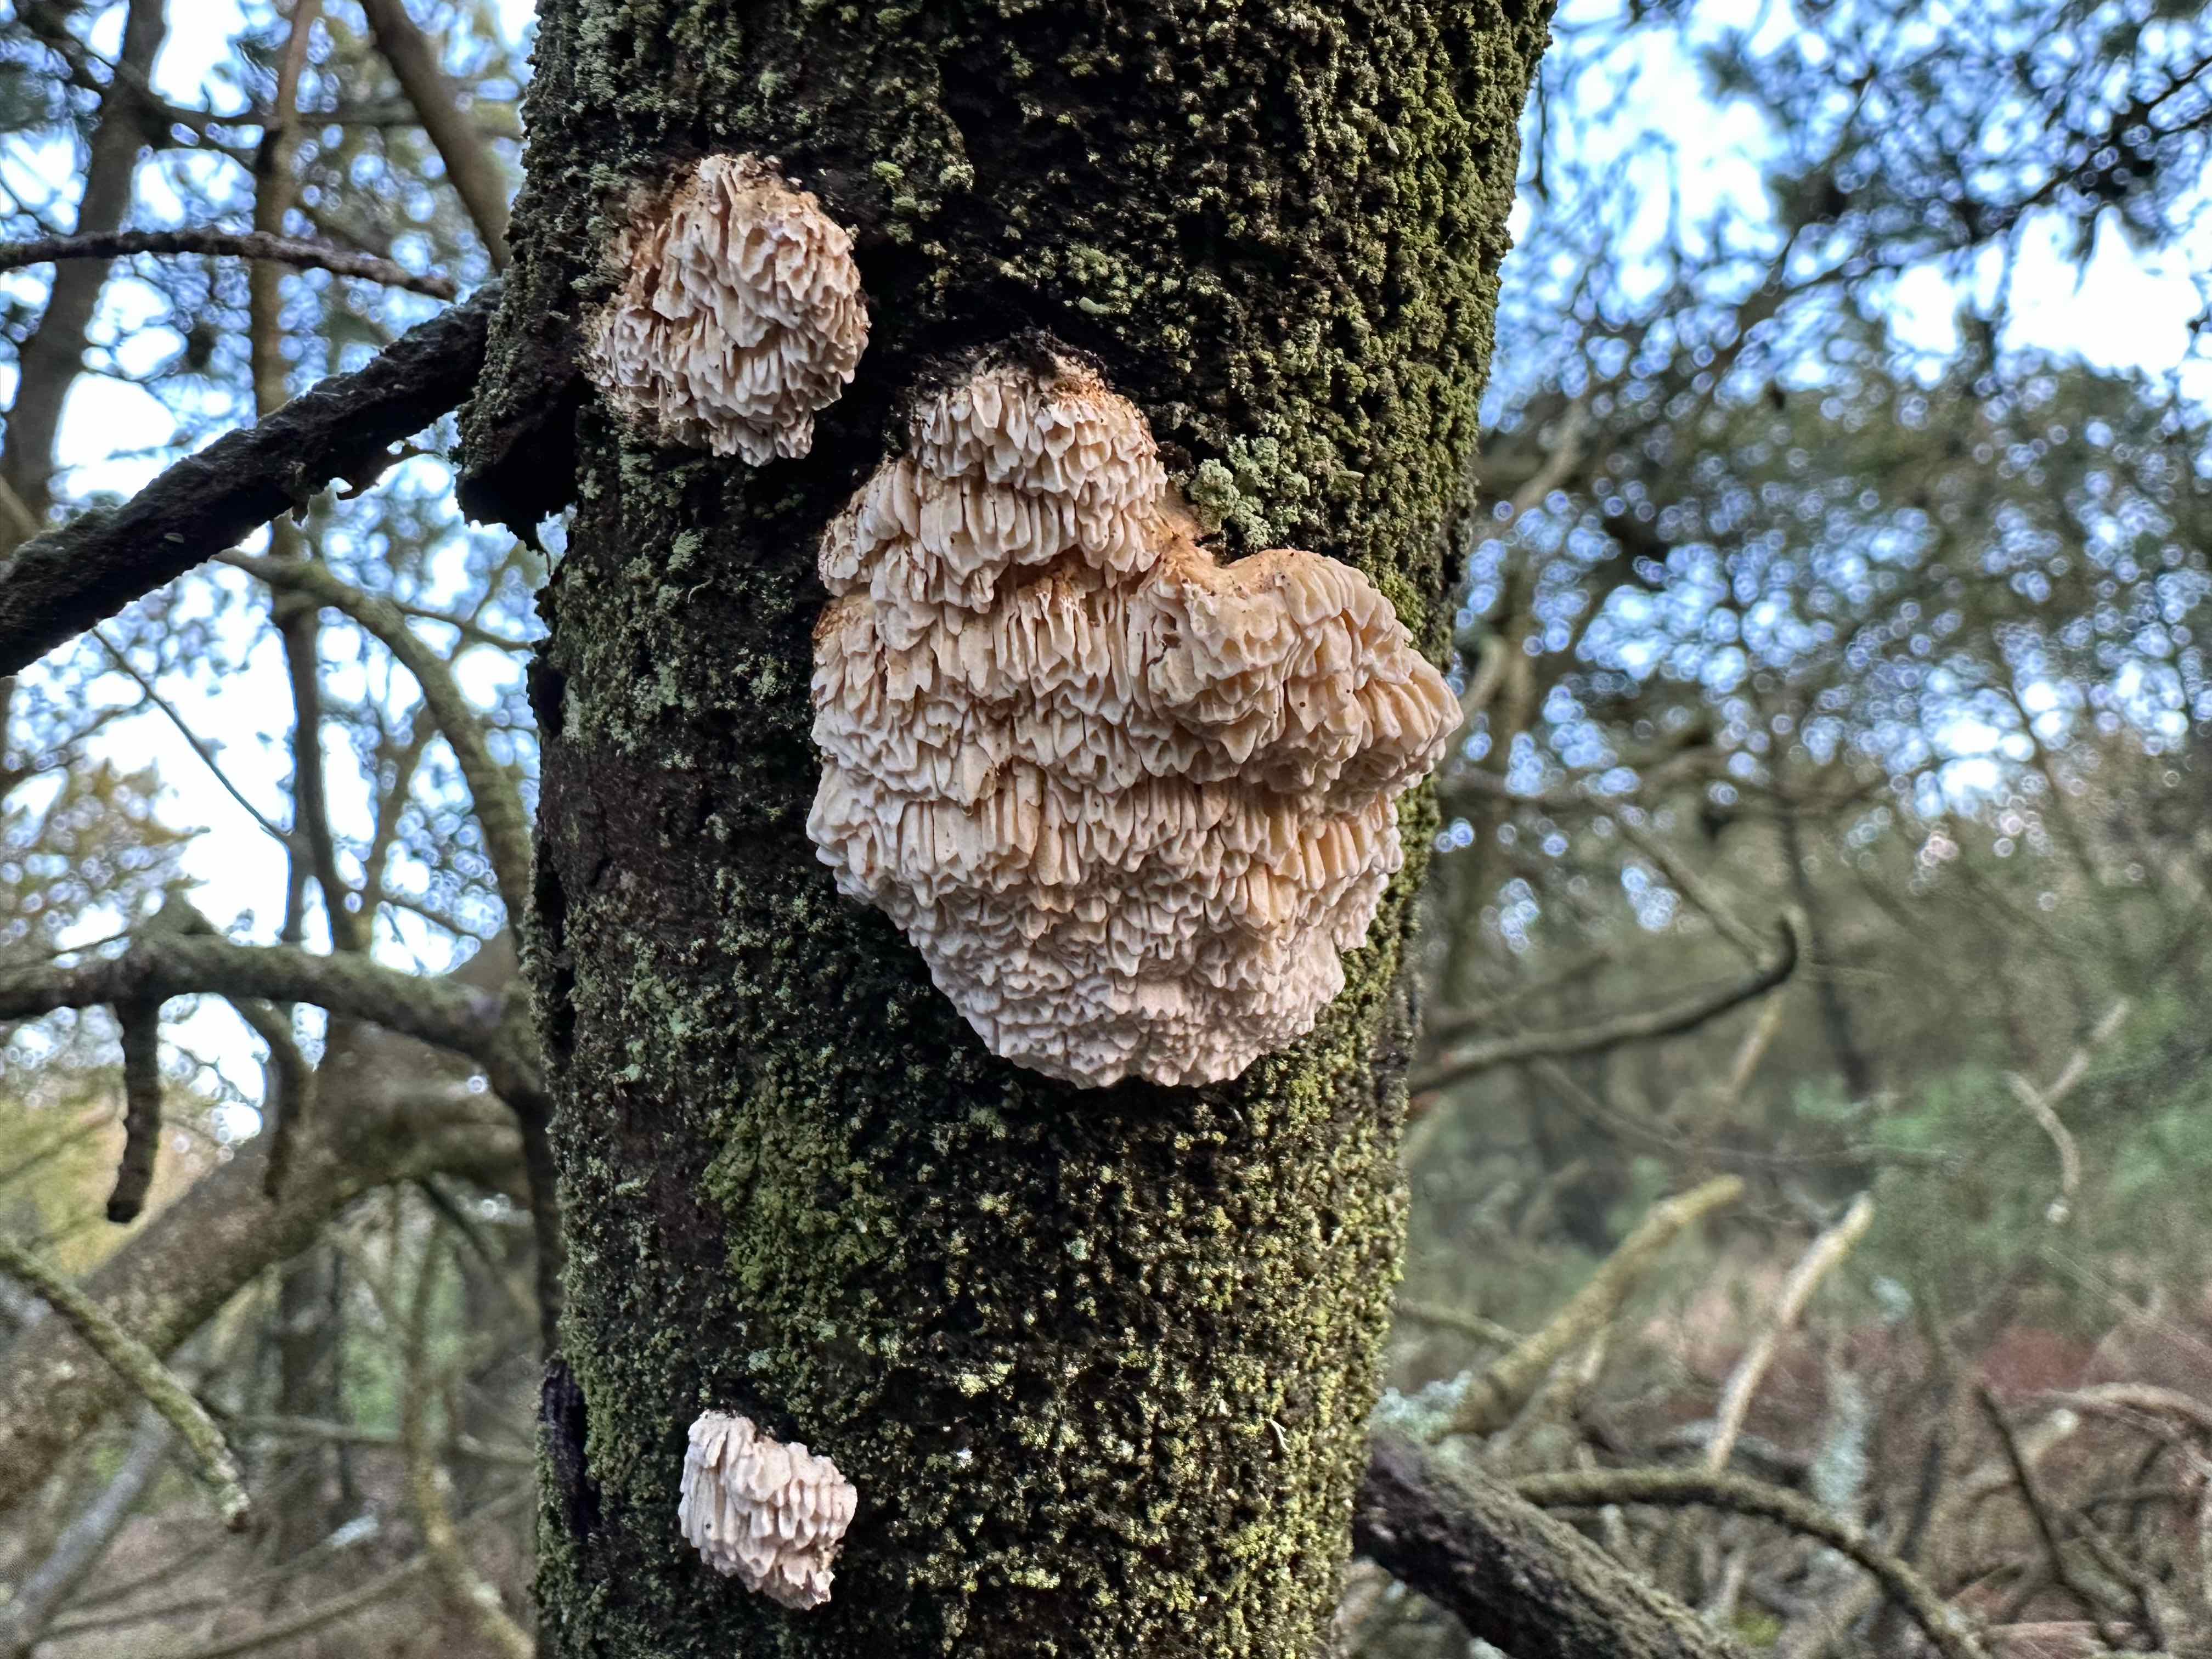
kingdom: Fungi
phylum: Basidiomycota
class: Agaricomycetes
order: Polyporales
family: Fomitopsidaceae
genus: Fomitopsis
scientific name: Fomitopsis
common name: fyrre-skiveporesvamp
